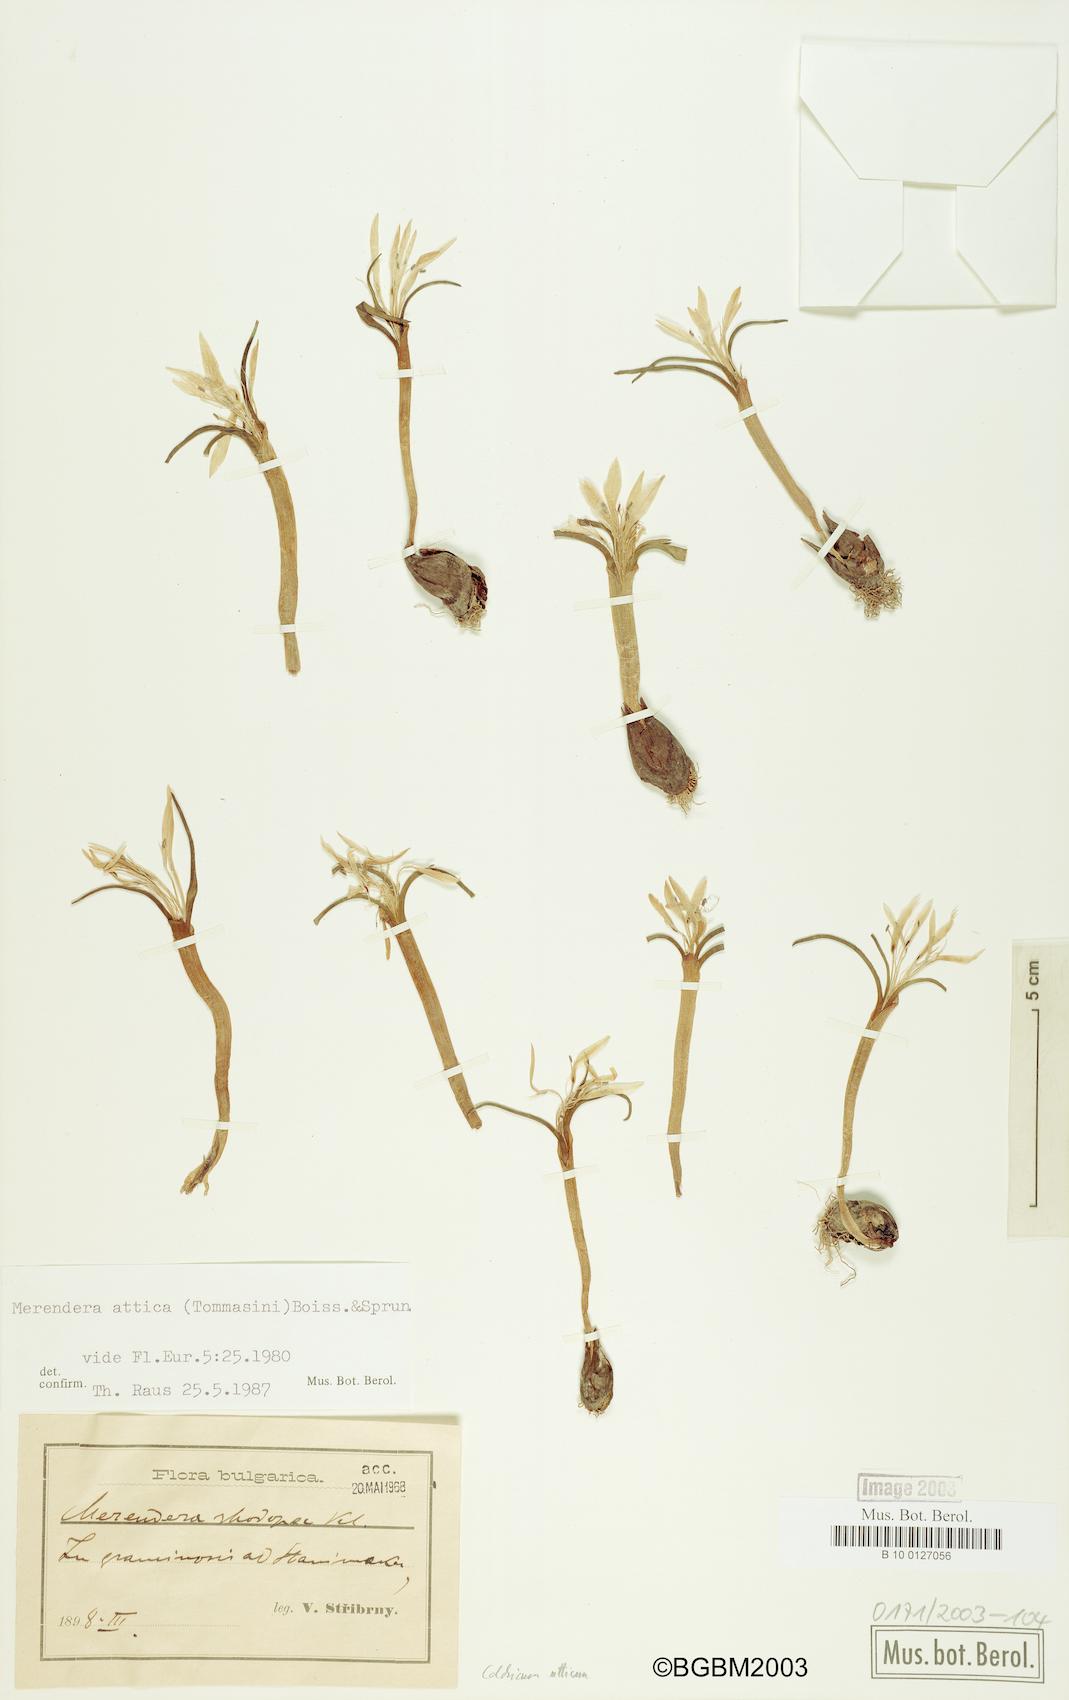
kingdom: Plantae
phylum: Tracheophyta
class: Liliopsida
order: Liliales
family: Colchicaceae
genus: Colchicum
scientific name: Colchicum atticum
